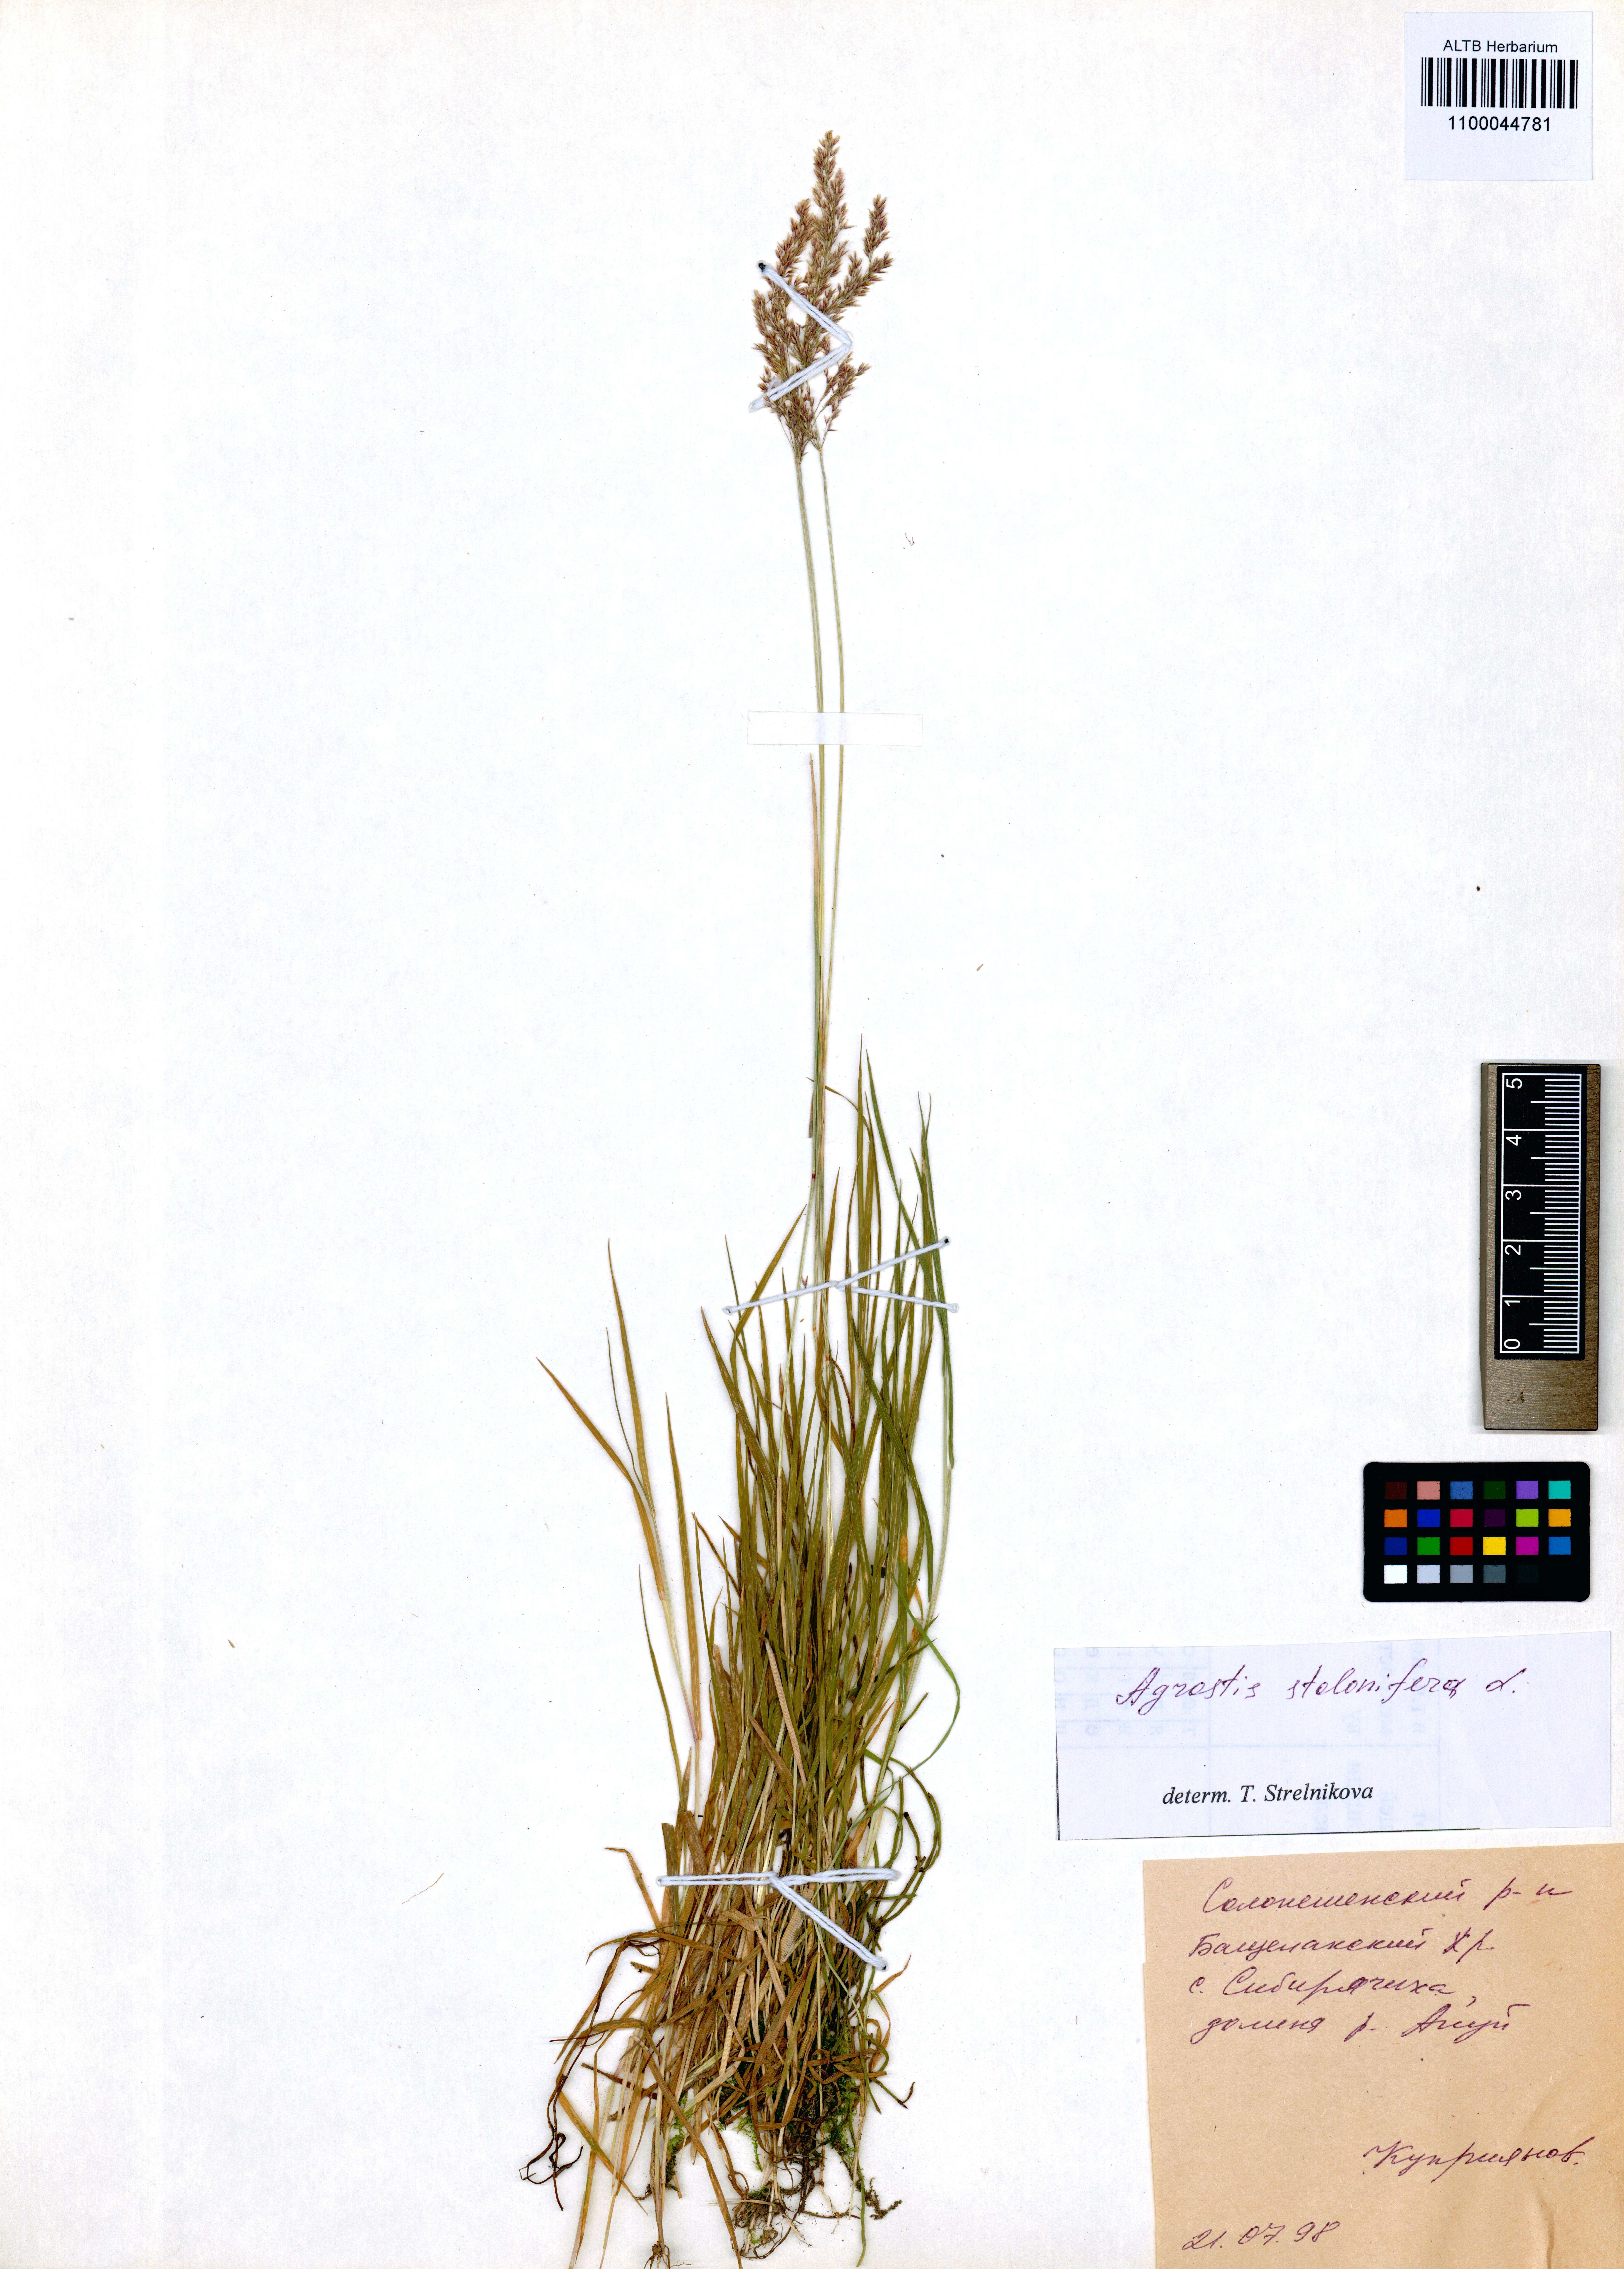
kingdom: Plantae
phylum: Tracheophyta
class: Liliopsida
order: Poales
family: Poaceae
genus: Agrostis
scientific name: Agrostis stolonifera
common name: Creeping bentgrass
